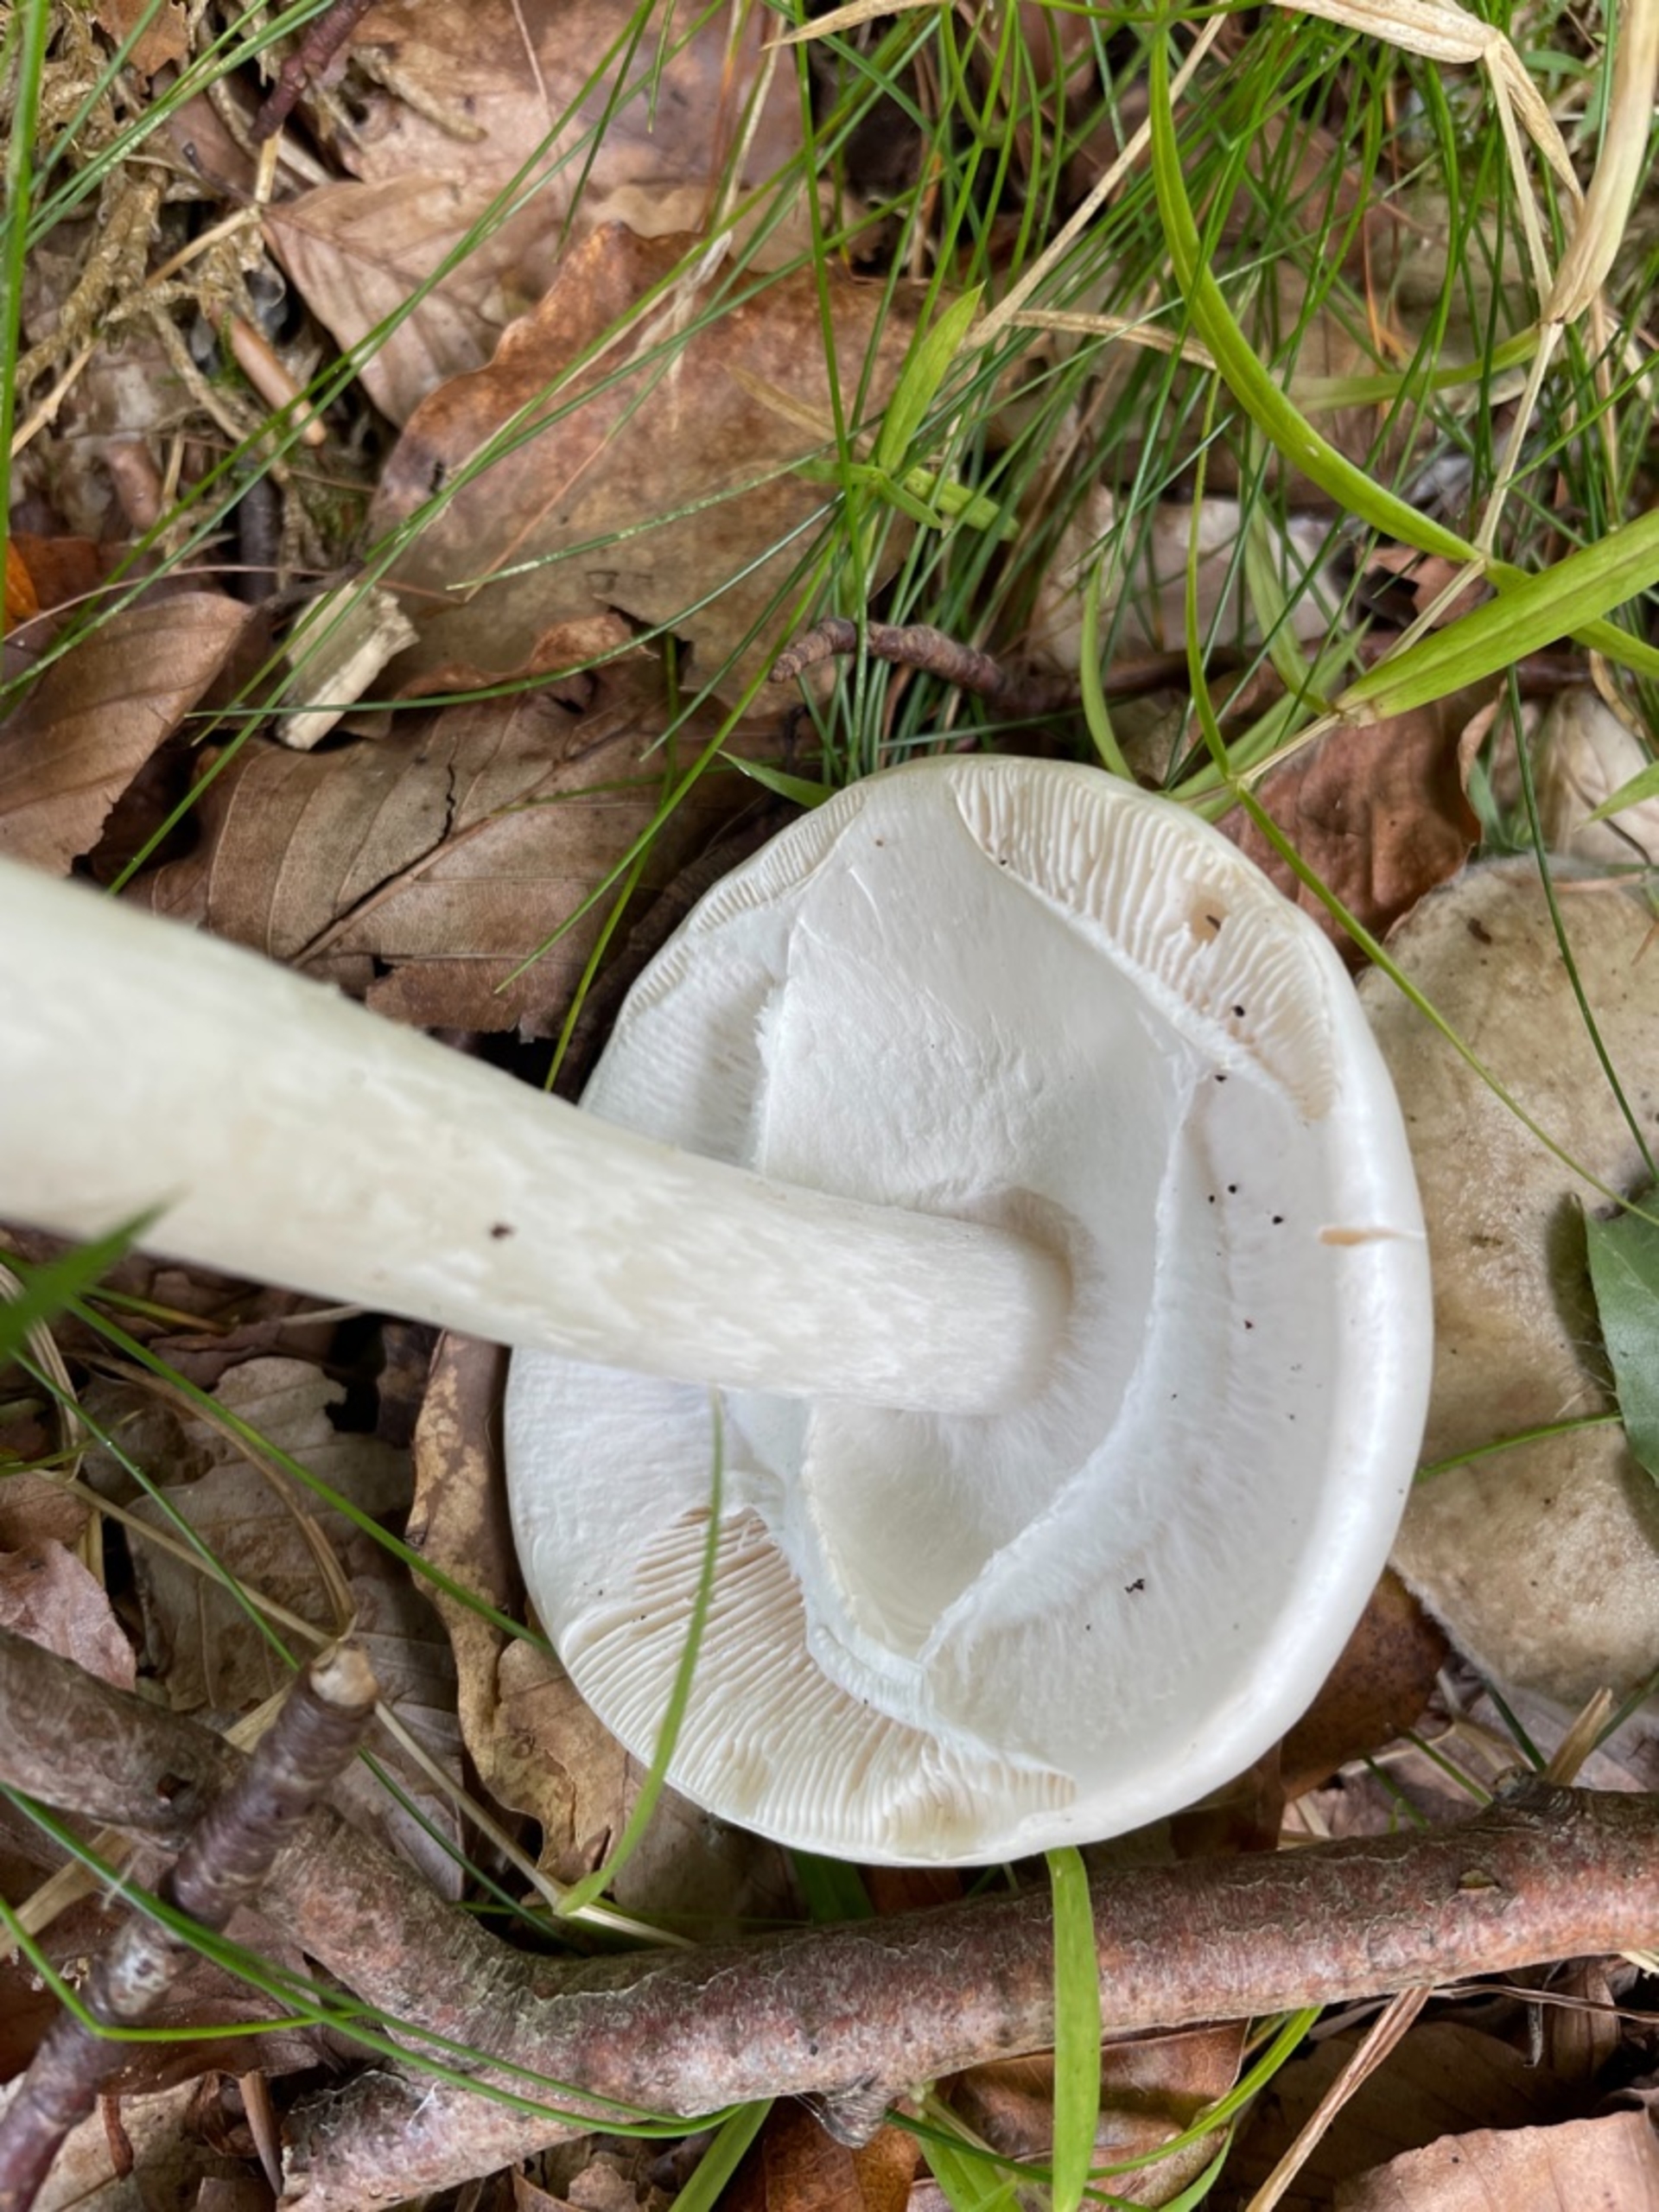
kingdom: Fungi
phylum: Basidiomycota
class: Agaricomycetes
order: Agaricales
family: Amanitaceae
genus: Amanita
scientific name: Amanita virosa
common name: Snehvid fluesvamp
